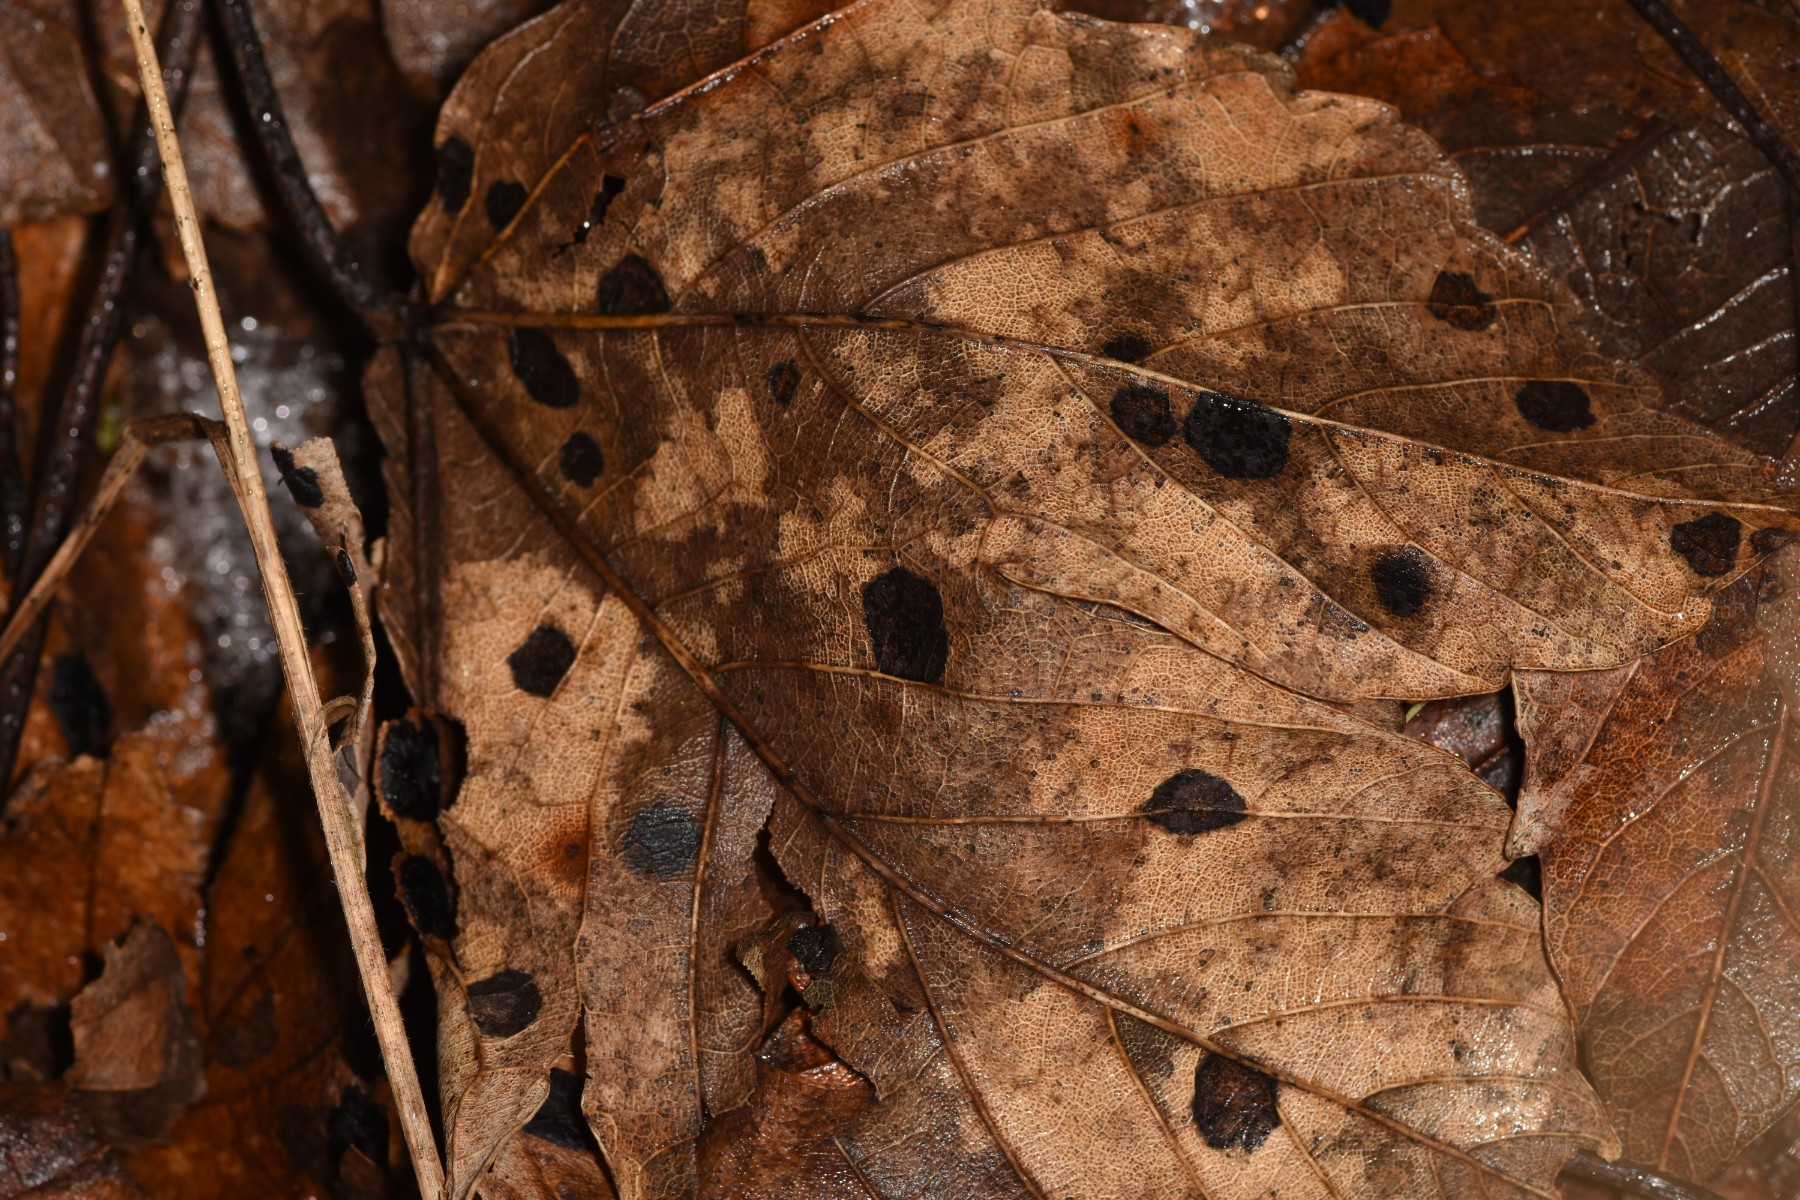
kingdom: Fungi
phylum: Ascomycota
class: Leotiomycetes
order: Rhytismatales
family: Rhytismataceae
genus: Rhytisma
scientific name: Rhytisma acerinum
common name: ahorn-rynkeplet
